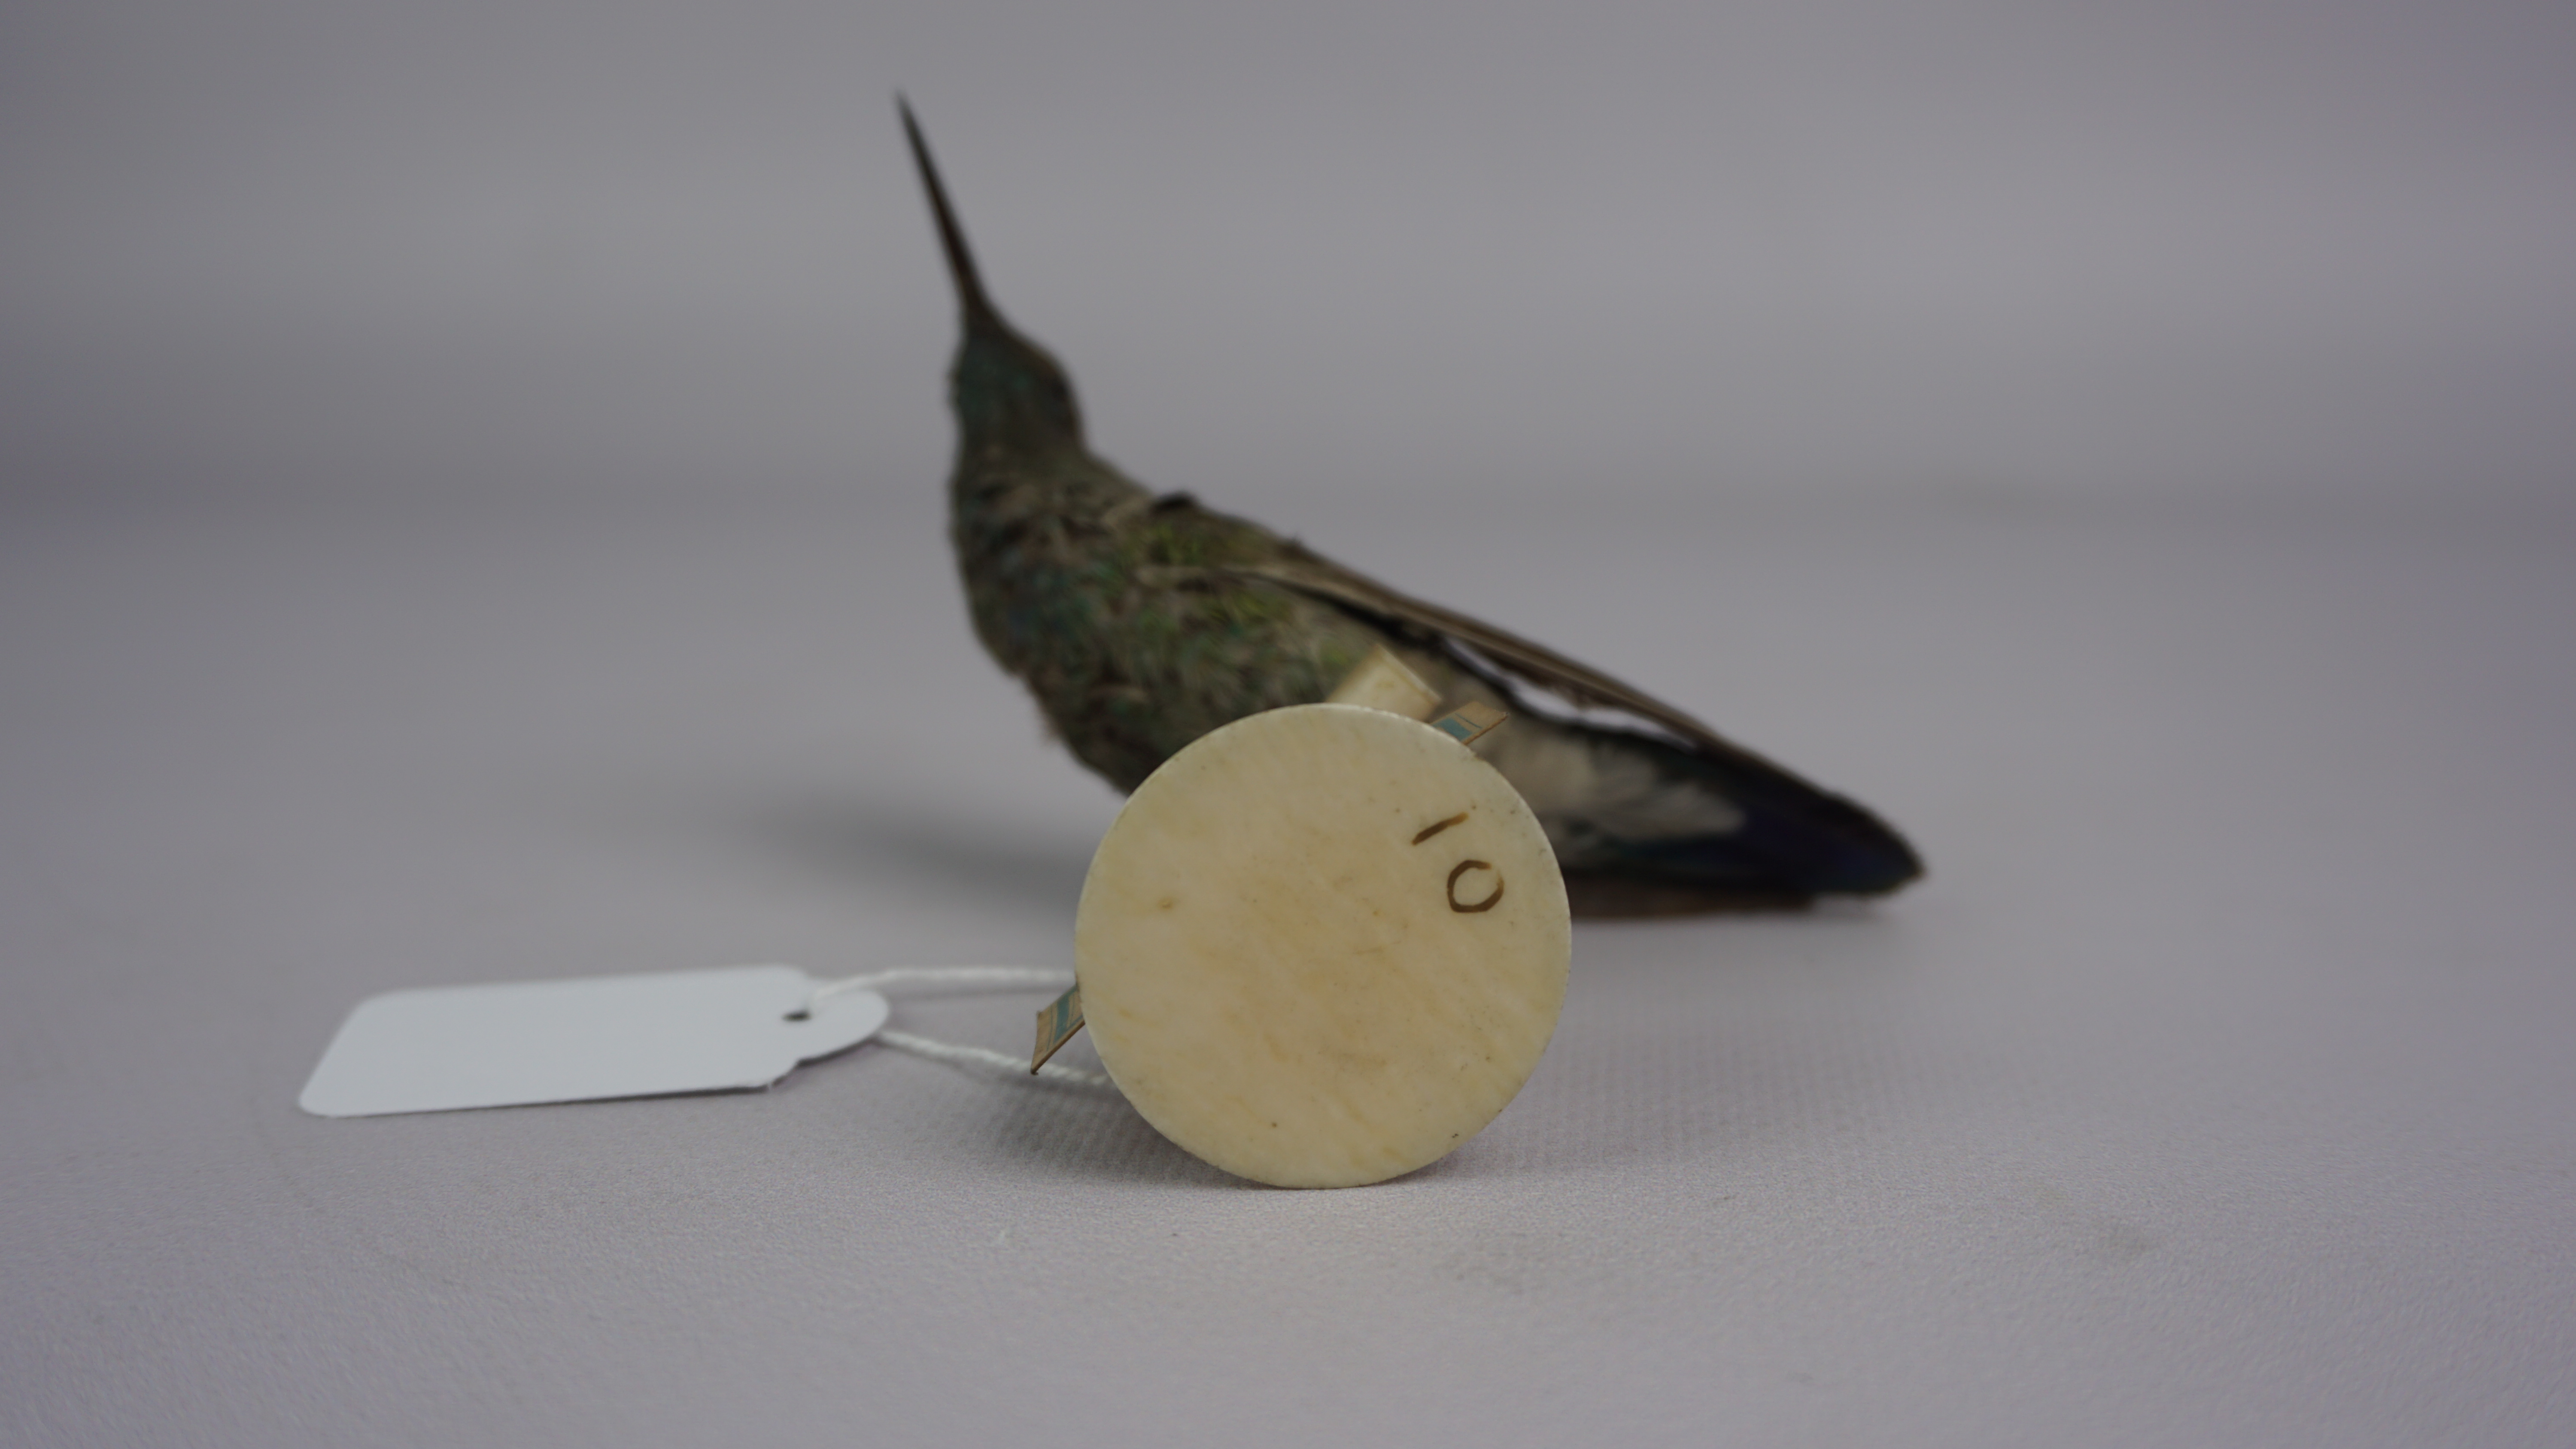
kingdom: Animalia
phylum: Chordata
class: Aves
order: Apodiformes
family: Trochilidae
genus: Colibri
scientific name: Colibri serrirostris
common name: White-vented violetear
